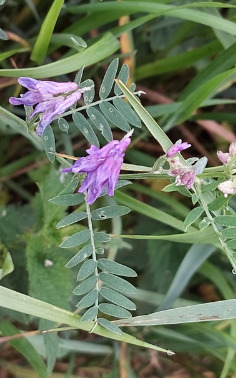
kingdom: Plantae
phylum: Tracheophyta
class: Magnoliopsida
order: Fabales
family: Fabaceae
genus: Vicia
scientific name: Vicia cracca
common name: Muse-vikke
